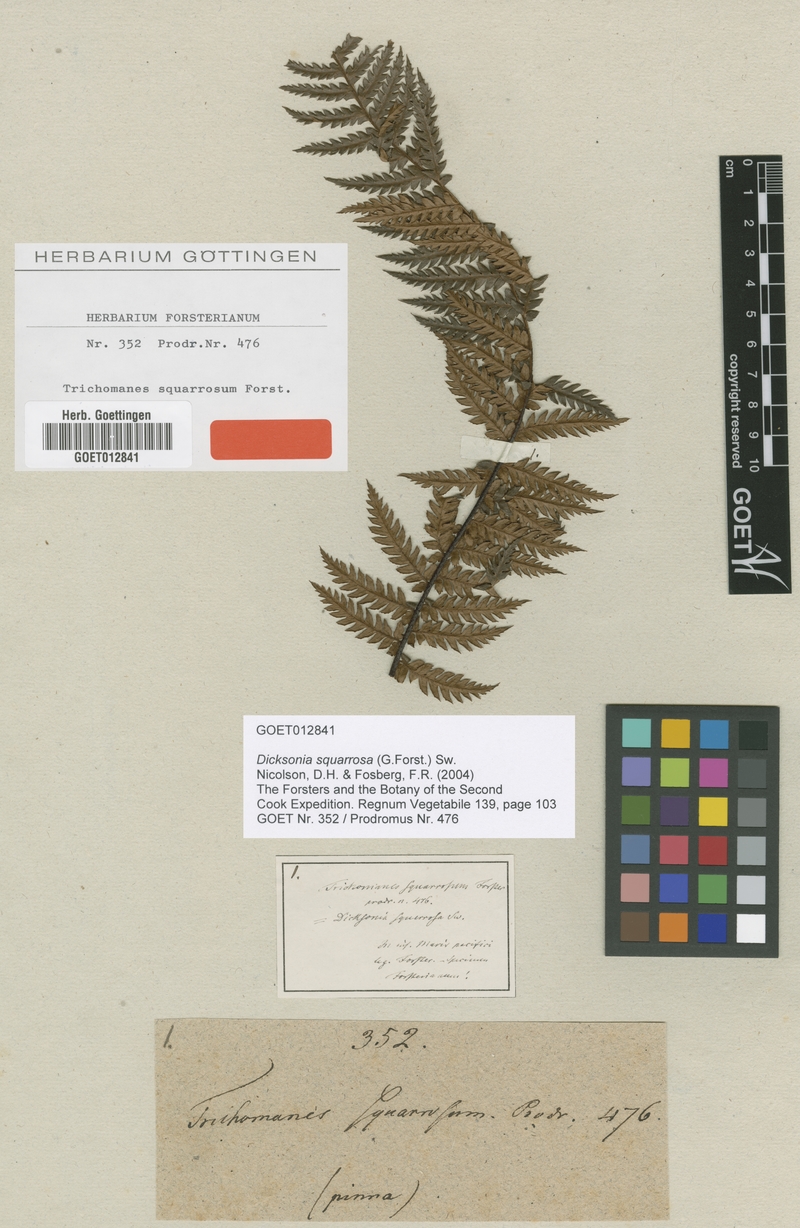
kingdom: Plantae
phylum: Tracheophyta
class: Polypodiopsida
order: Cyatheales
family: Dicksoniaceae
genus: Dicksonia
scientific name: Dicksonia squarrosa
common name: Hard treefern
